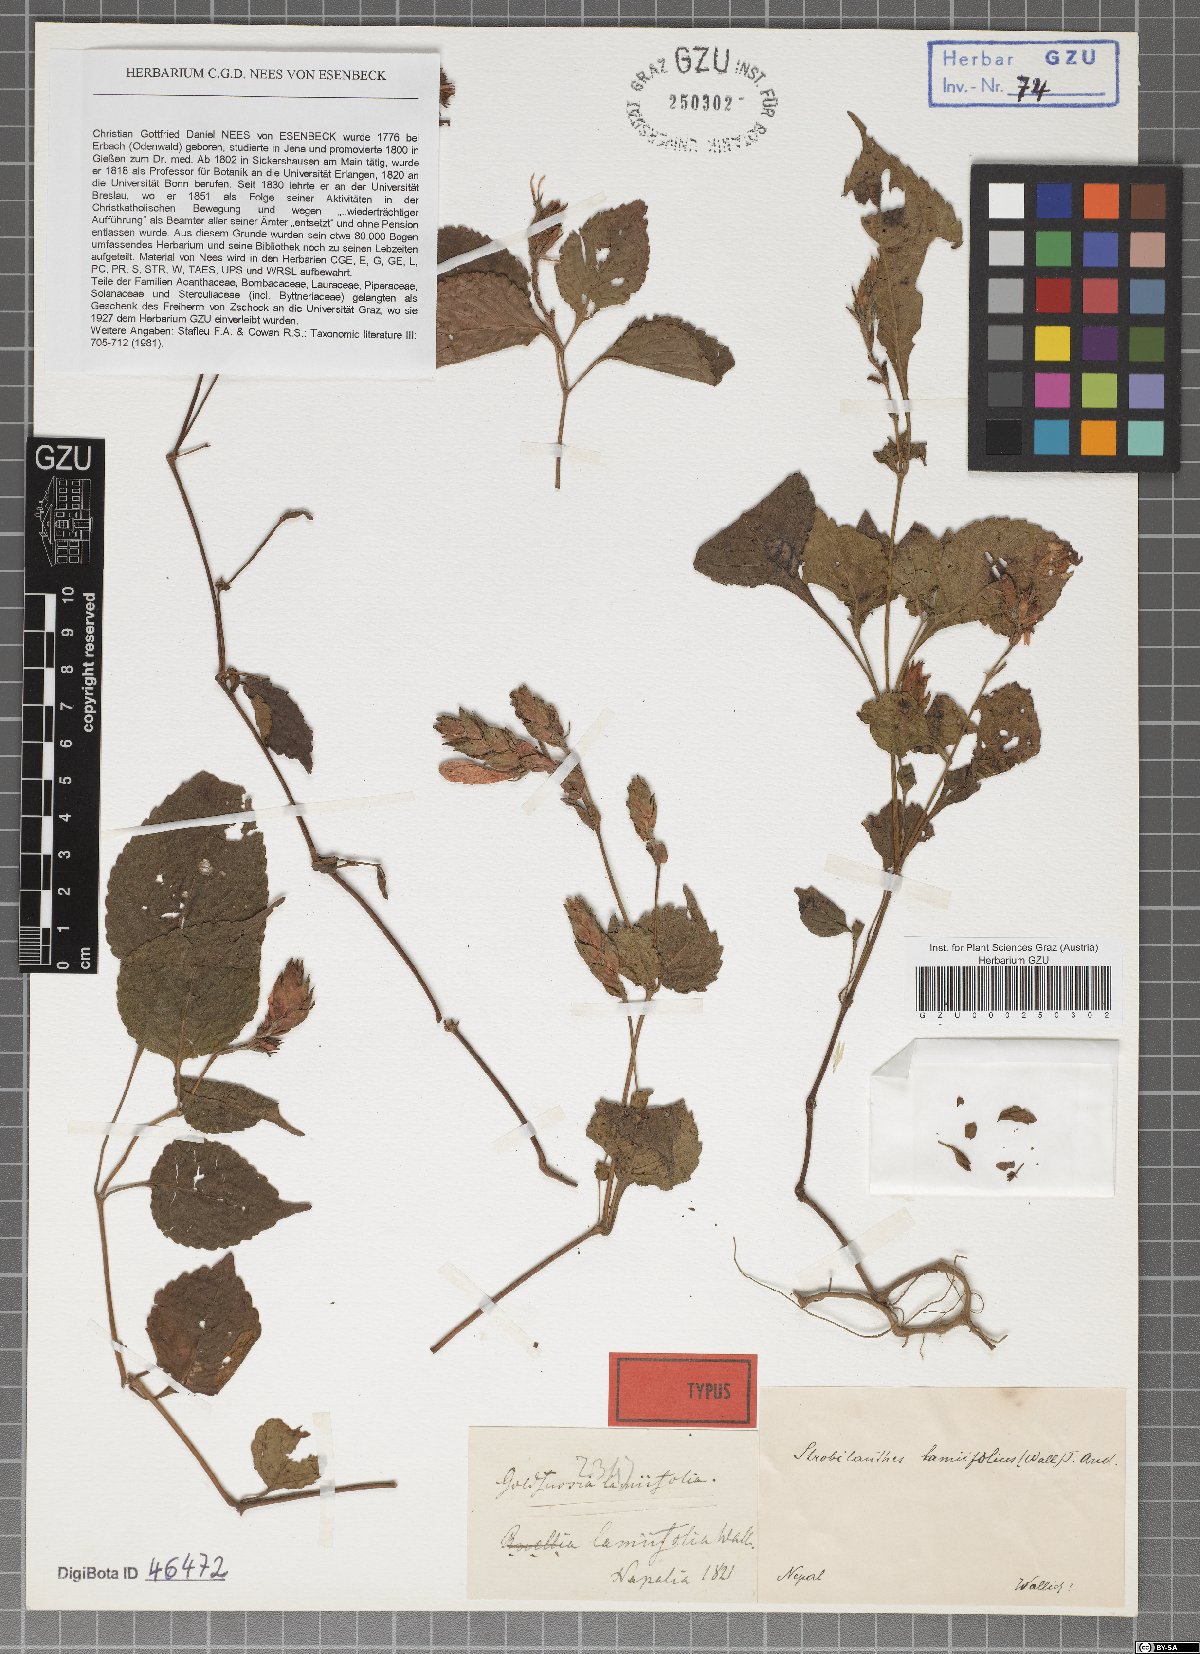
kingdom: Plantae
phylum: Tracheophyta
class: Magnoliopsida
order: Lamiales
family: Acanthaceae
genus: Strobilanthes
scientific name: Strobilanthes lamiifolia
